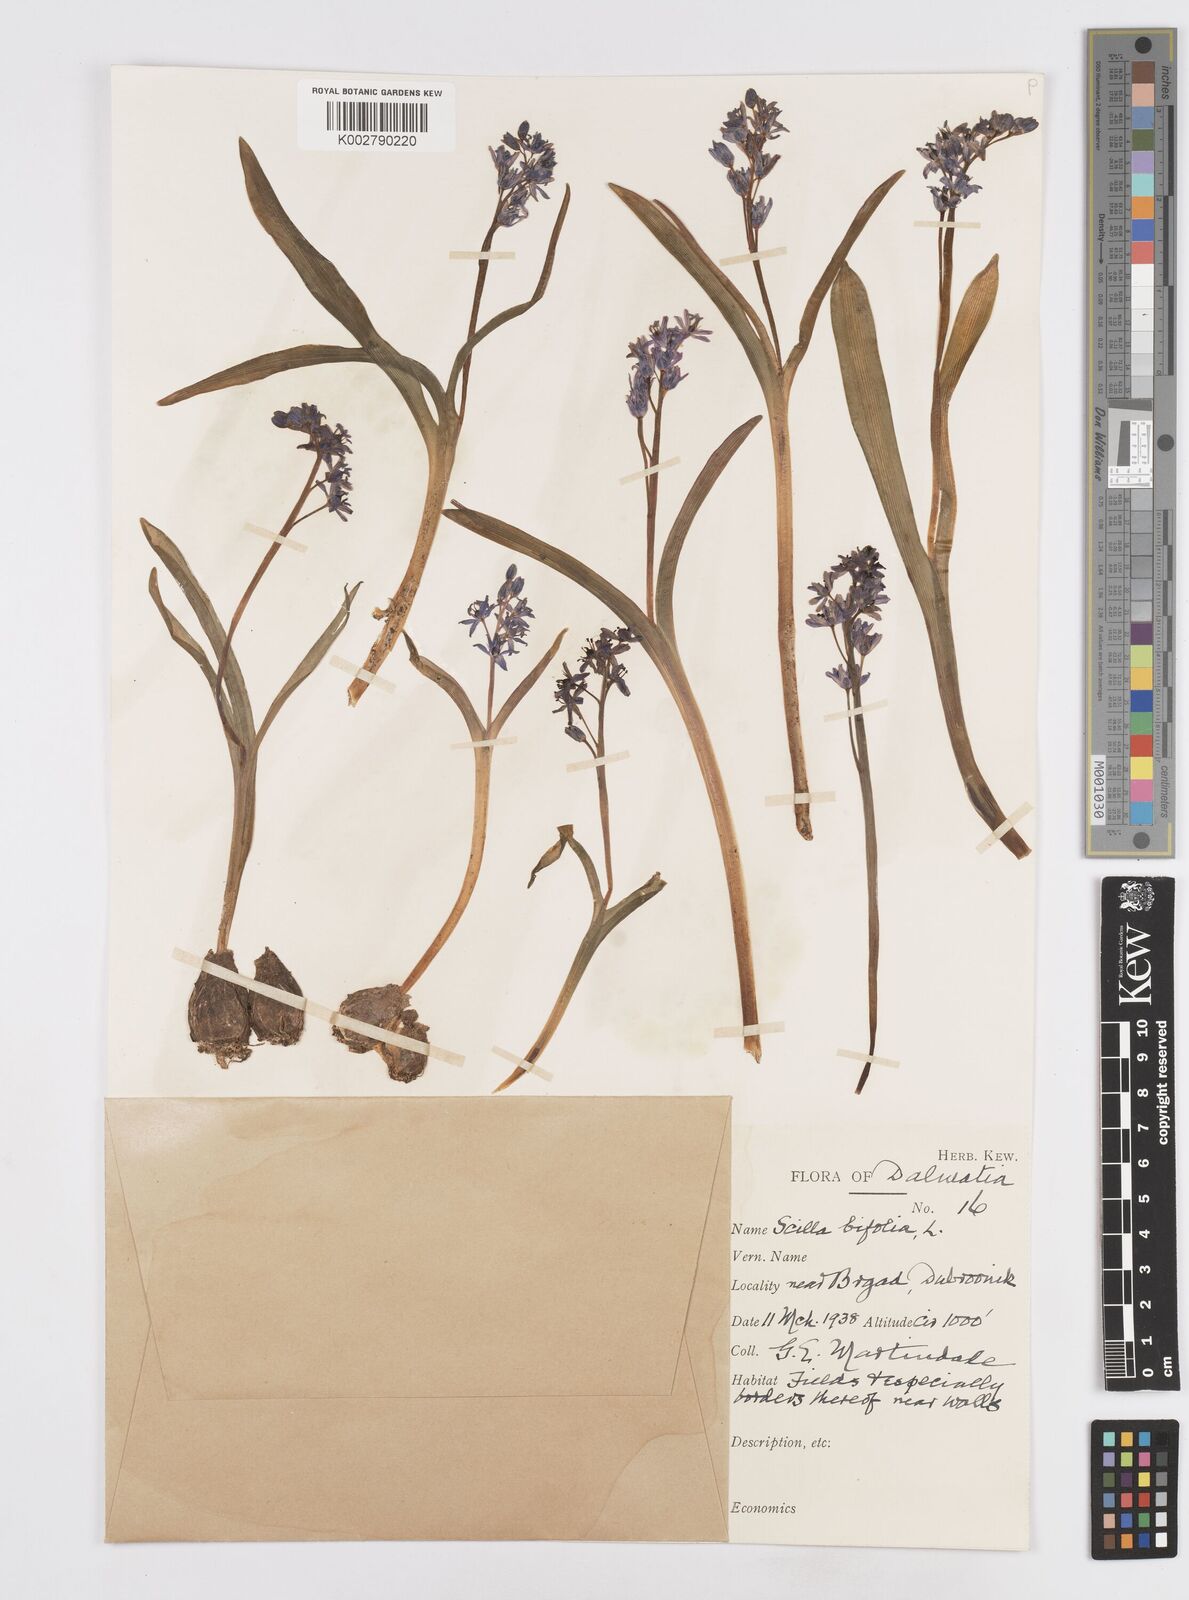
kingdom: Plantae
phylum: Tracheophyta
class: Liliopsida
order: Asparagales
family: Asparagaceae
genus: Scilla
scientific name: Scilla bifolia
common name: Alpine squill
